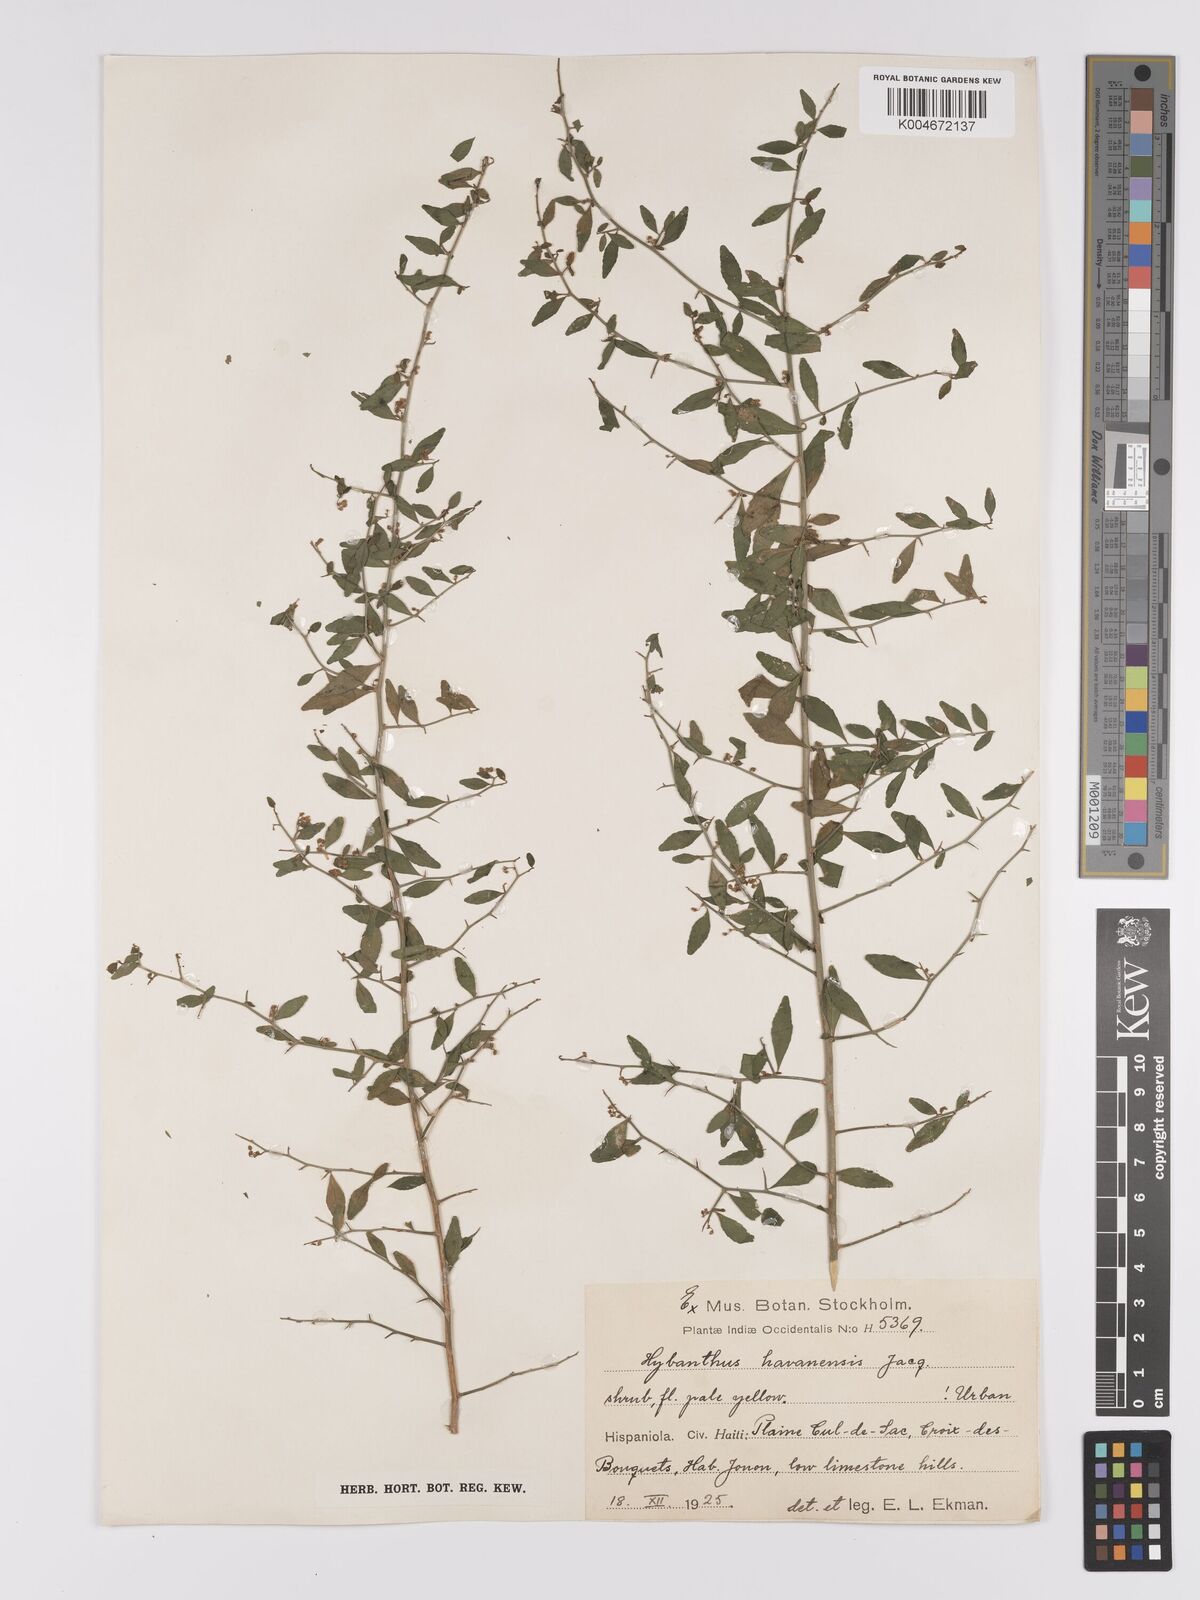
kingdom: Plantae
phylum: Tracheophyta
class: Magnoliopsida
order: Malpighiales
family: Violaceae
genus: Hybanthus
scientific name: Hybanthus havanensis
